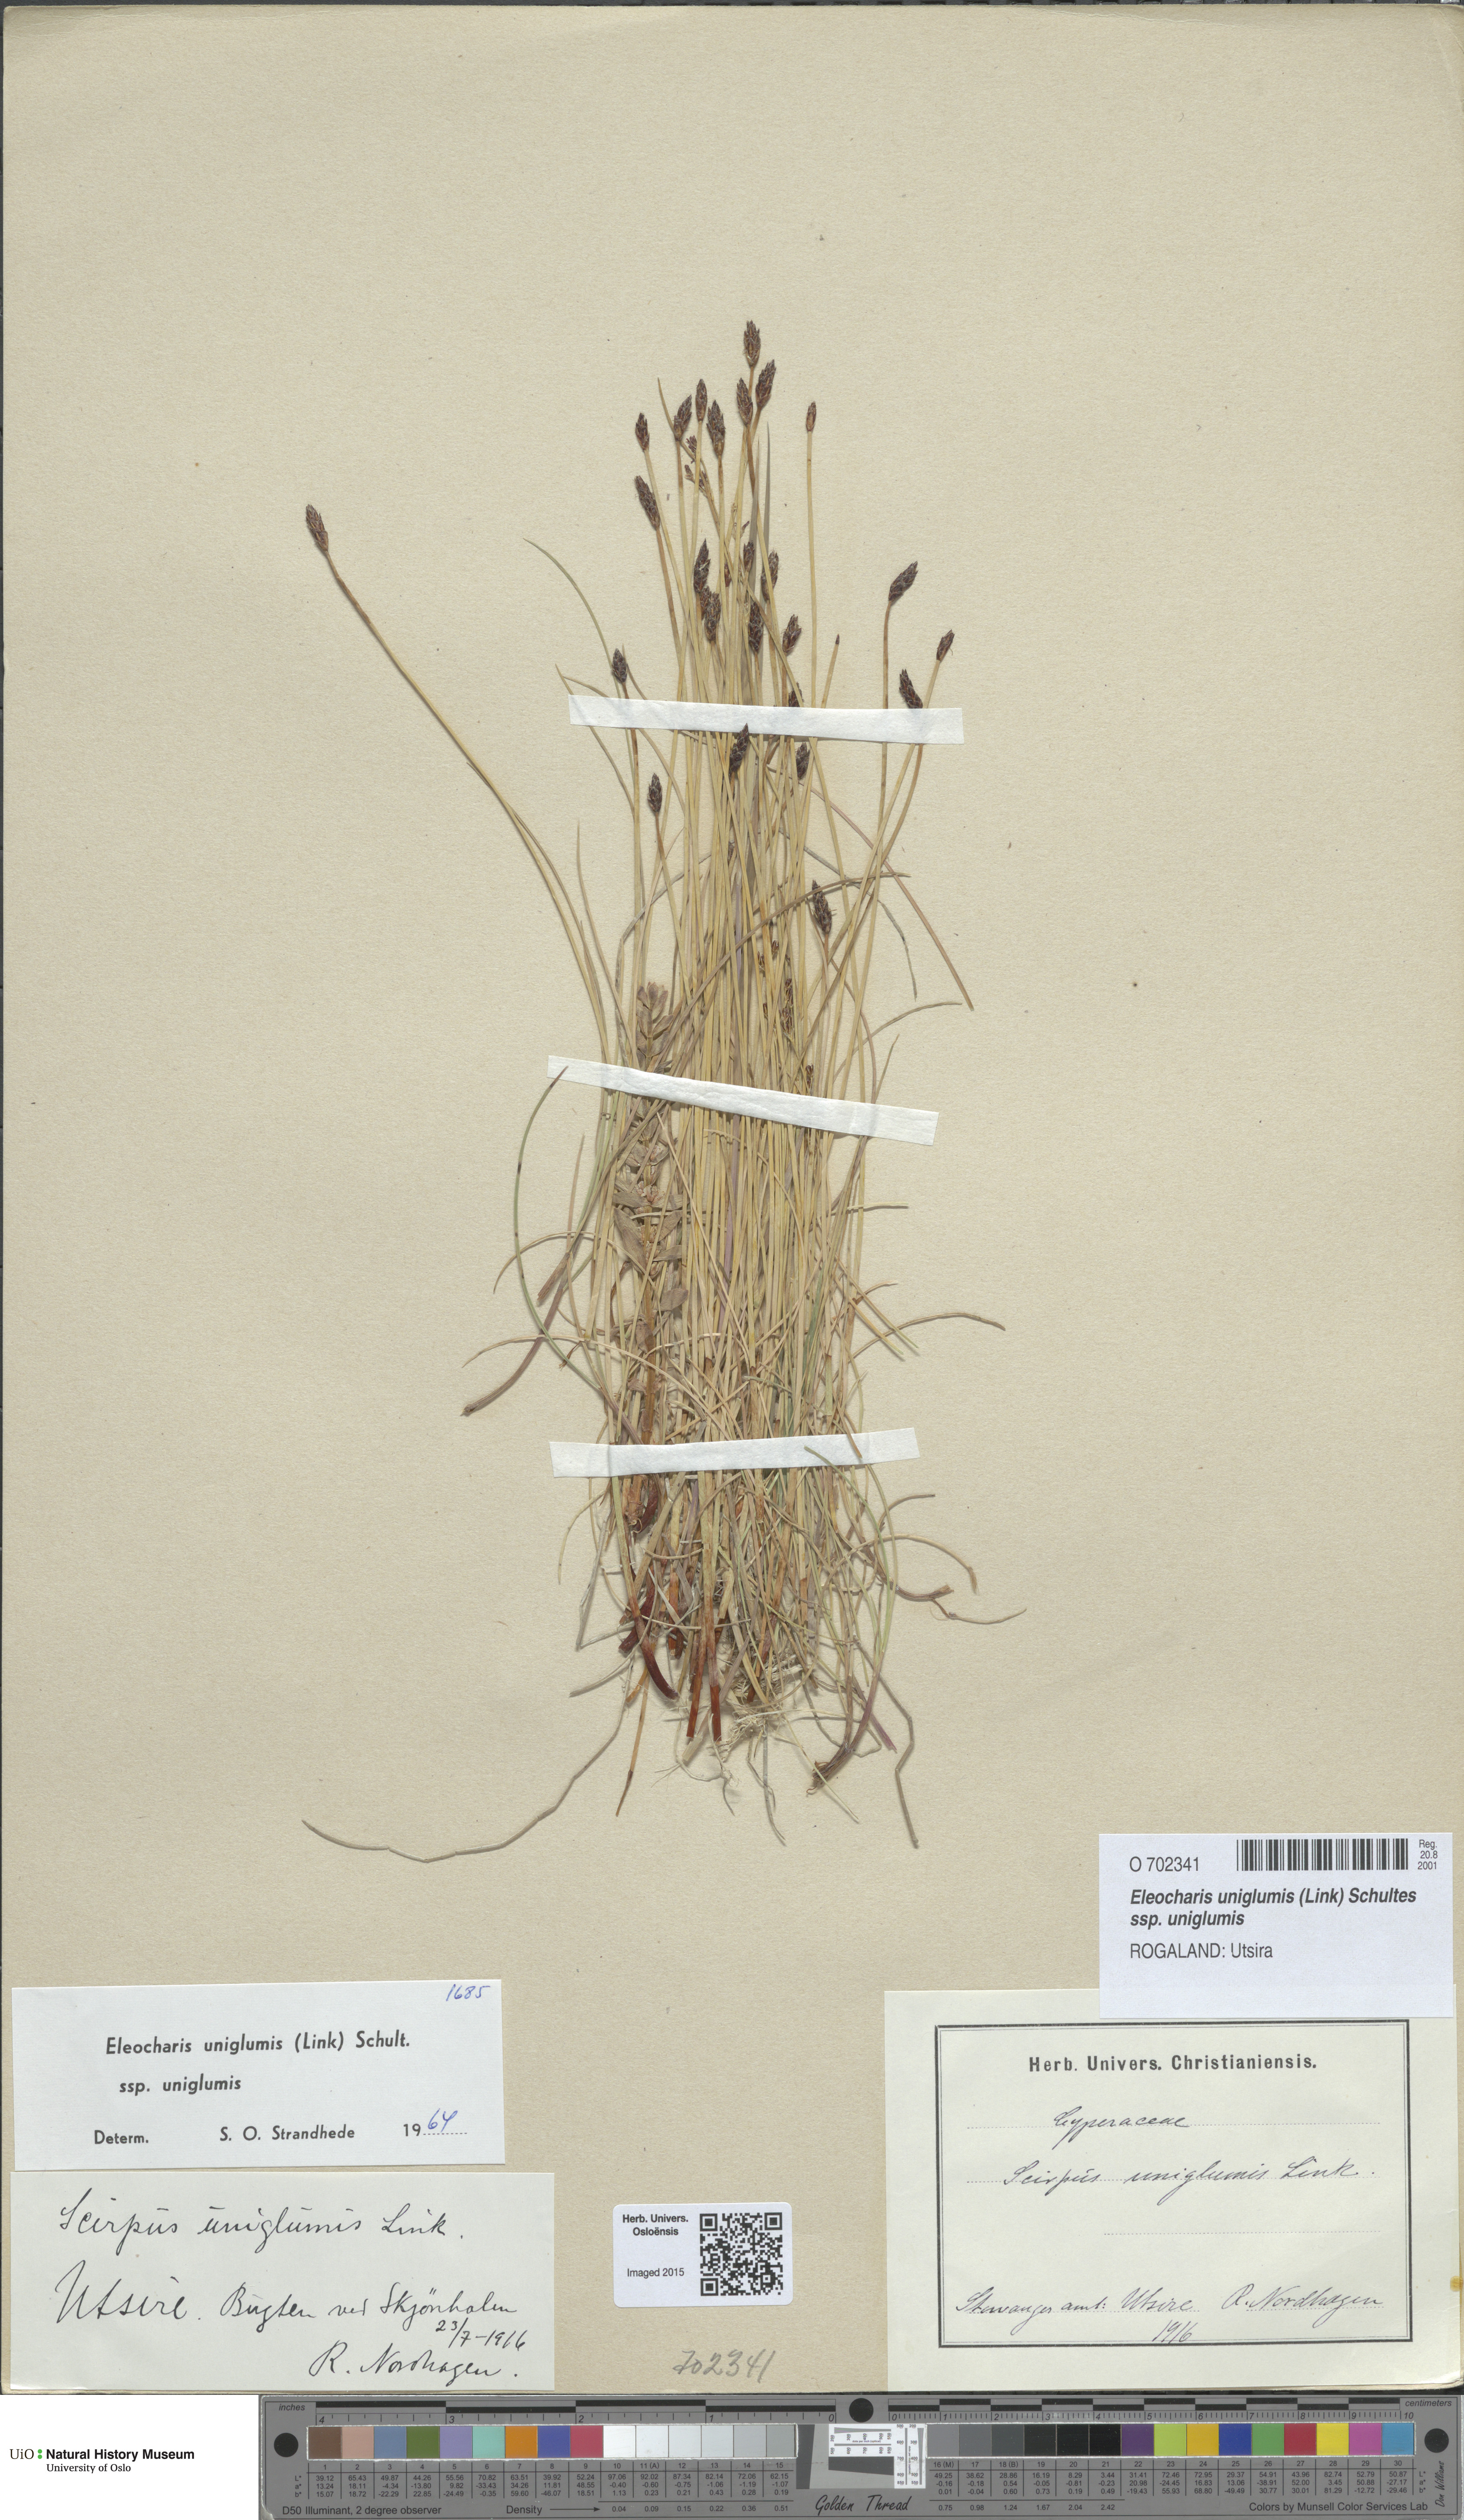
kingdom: Plantae
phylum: Tracheophyta
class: Liliopsida
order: Poales
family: Cyperaceae
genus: Eleocharis
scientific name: Eleocharis uniglumis
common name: Slender spike-rush
